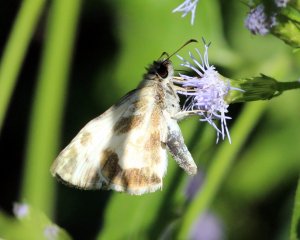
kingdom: Animalia
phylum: Arthropoda
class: Insecta
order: Lepidoptera
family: Hesperiidae
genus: Heliopetes
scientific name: Heliopetes macaira
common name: Turk's-cap White-Skipper
